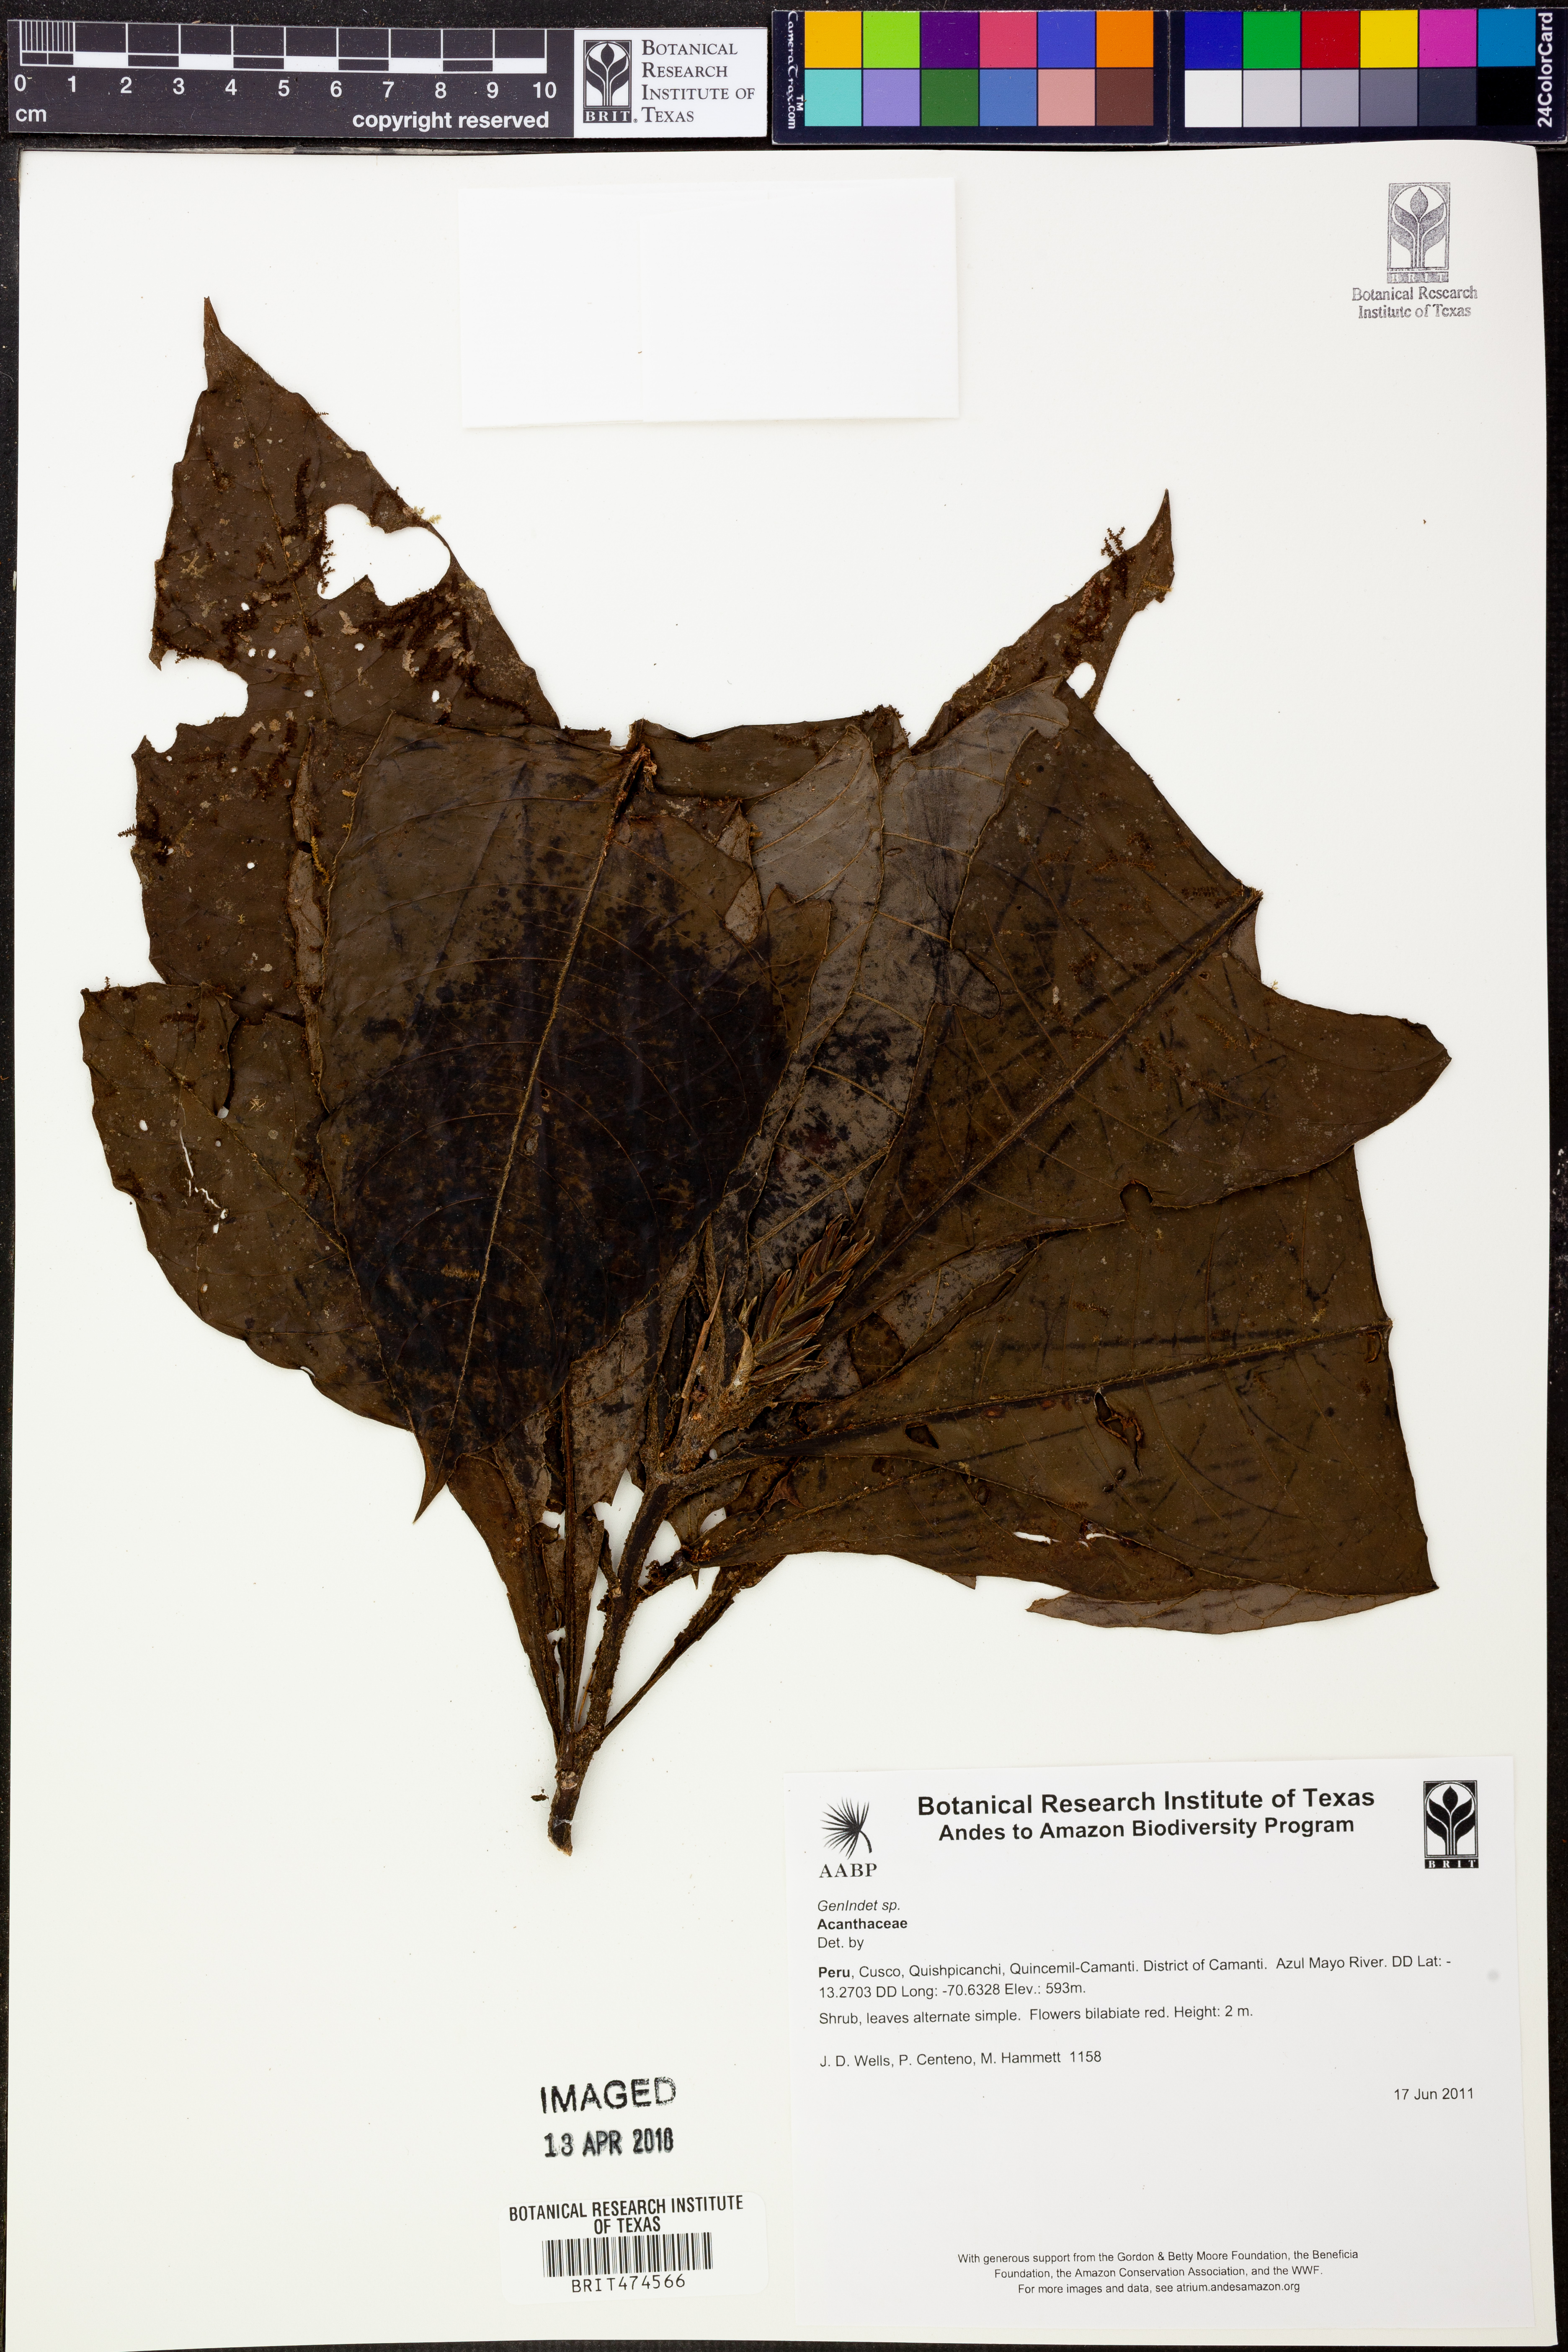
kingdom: Plantae
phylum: Tracheophyta
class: Magnoliopsida
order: Lamiales
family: Acanthaceae
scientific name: Acanthaceae
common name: Acanthaceae
